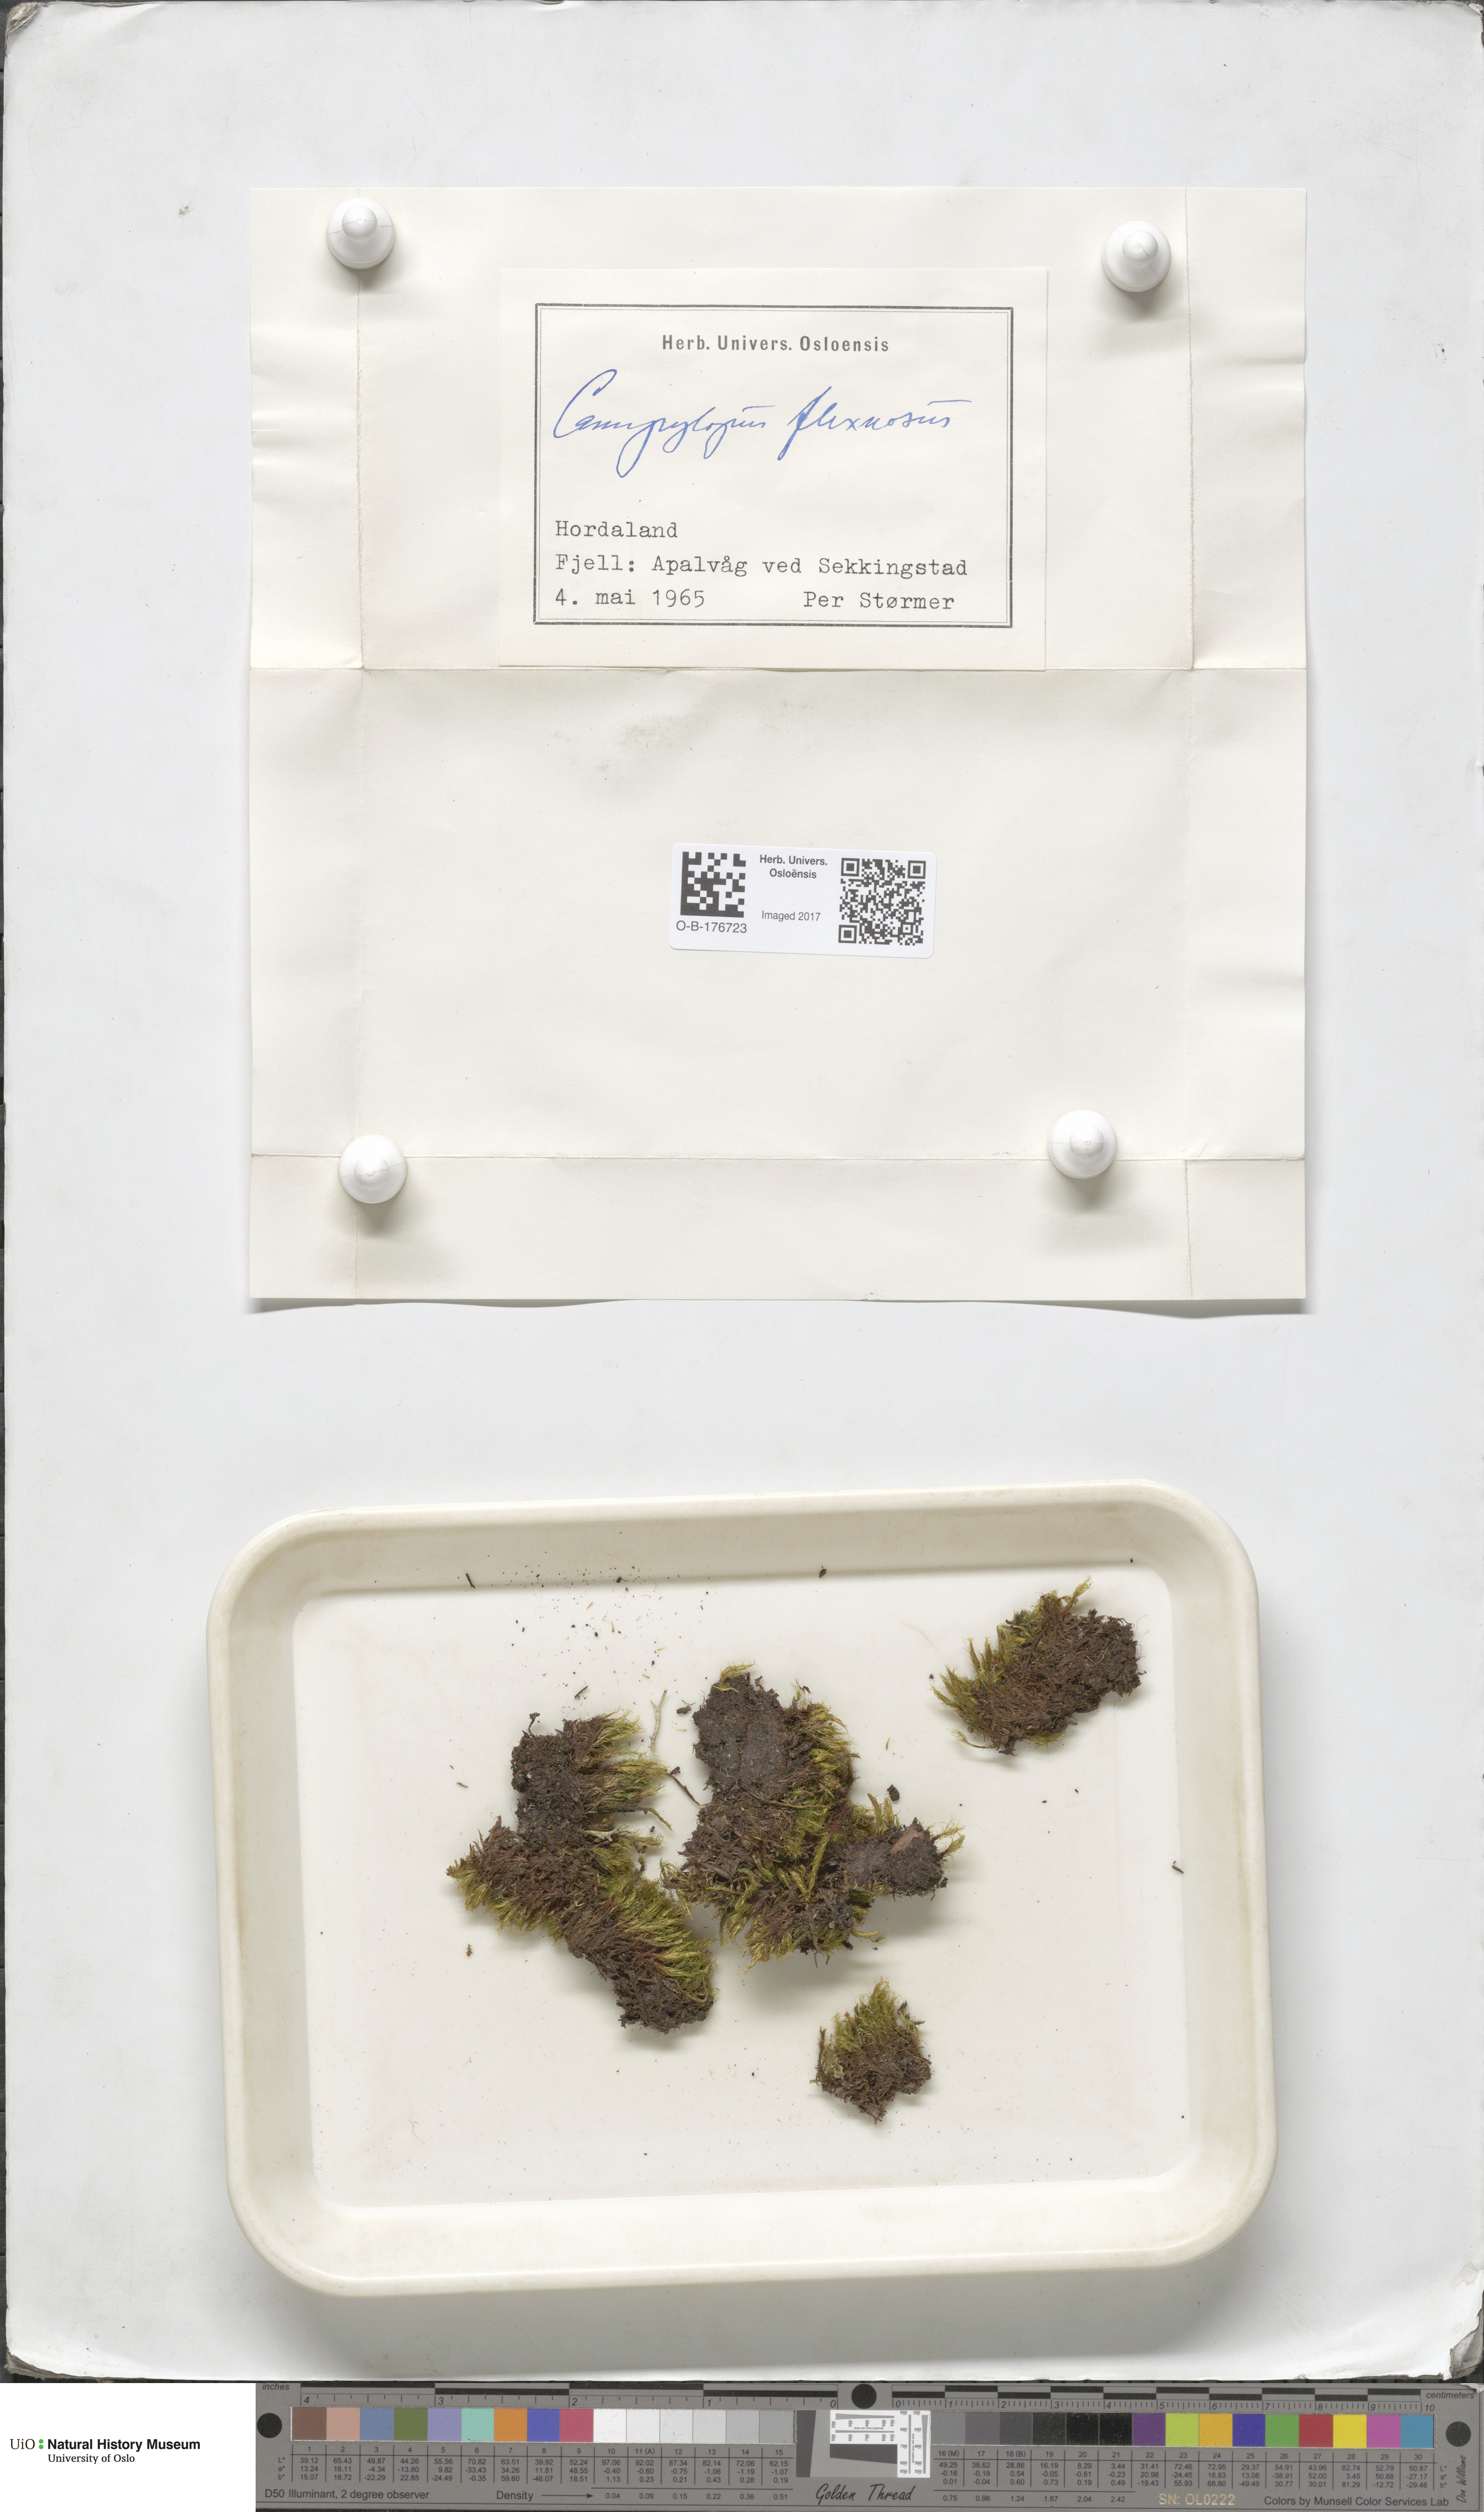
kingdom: Plantae
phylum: Bryophyta
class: Bryopsida
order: Dicranales
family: Leucobryaceae
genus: Campylopus
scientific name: Campylopus flexuosus
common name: Rusty swan-neck moss
